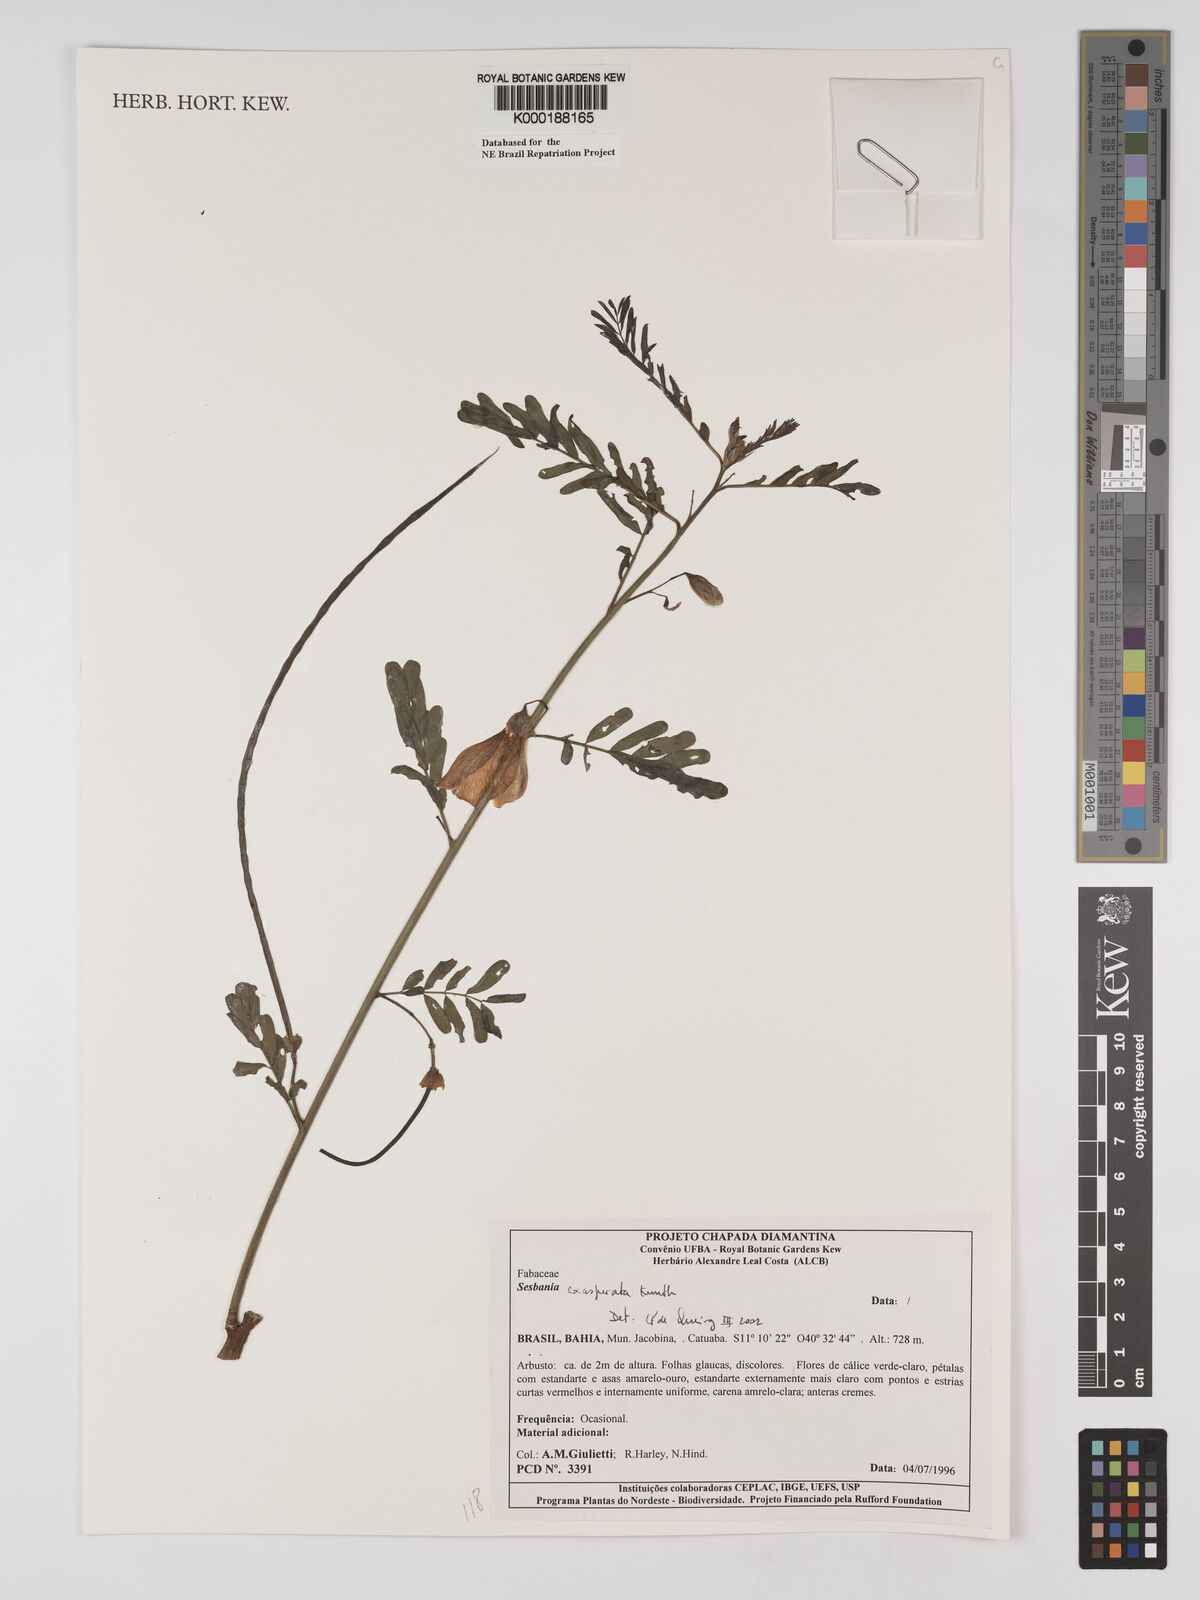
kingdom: Plantae
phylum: Tracheophyta
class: Magnoliopsida
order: Fabales
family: Fabaceae
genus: Sesbania
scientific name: Sesbania exasperata
